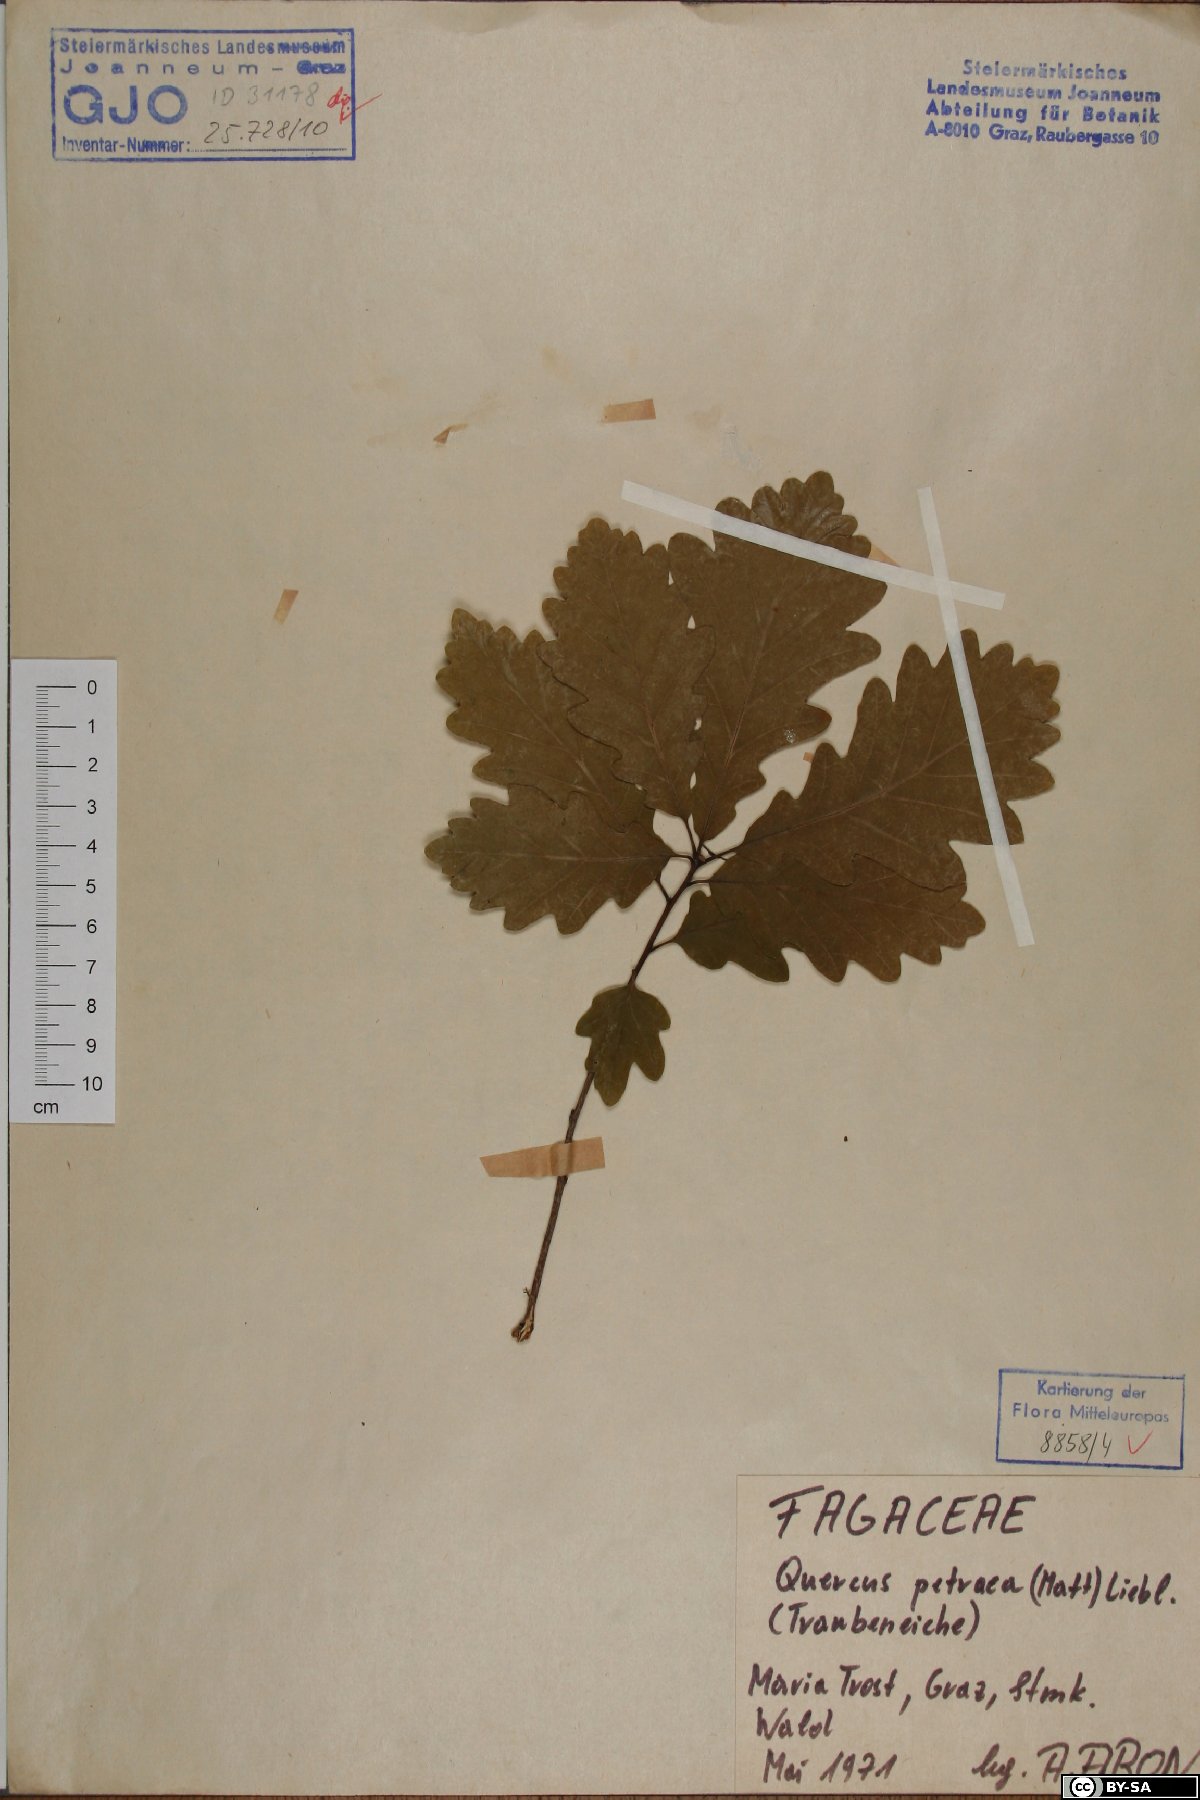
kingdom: Plantae
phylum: Tracheophyta
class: Magnoliopsida
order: Fagales
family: Fagaceae
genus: Quercus
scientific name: Quercus petraea
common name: Sessile oak
